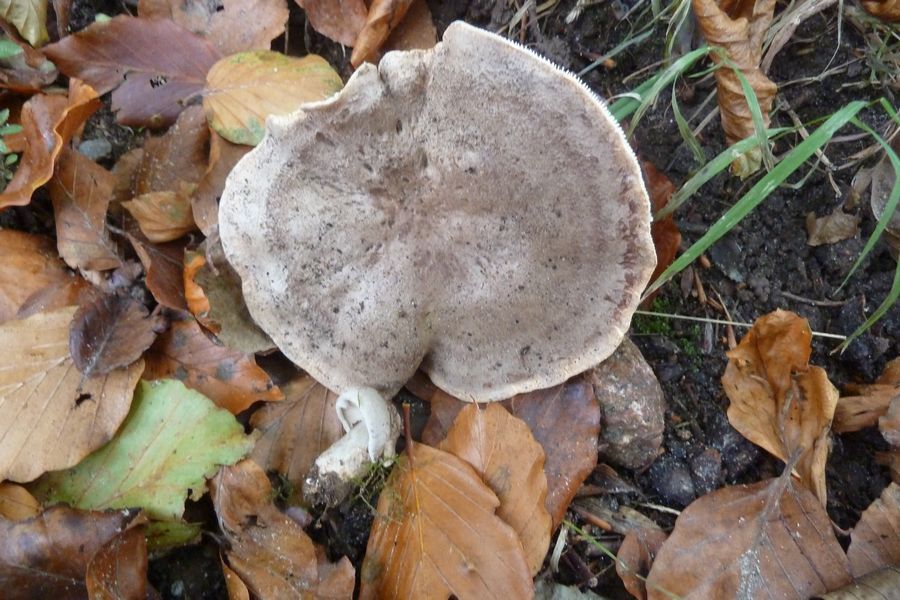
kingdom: Fungi
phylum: Basidiomycota
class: Agaricomycetes
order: Russulales
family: Russulaceae
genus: Lactarius
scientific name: Lactarius fluens
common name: lysrandet mælkehat
